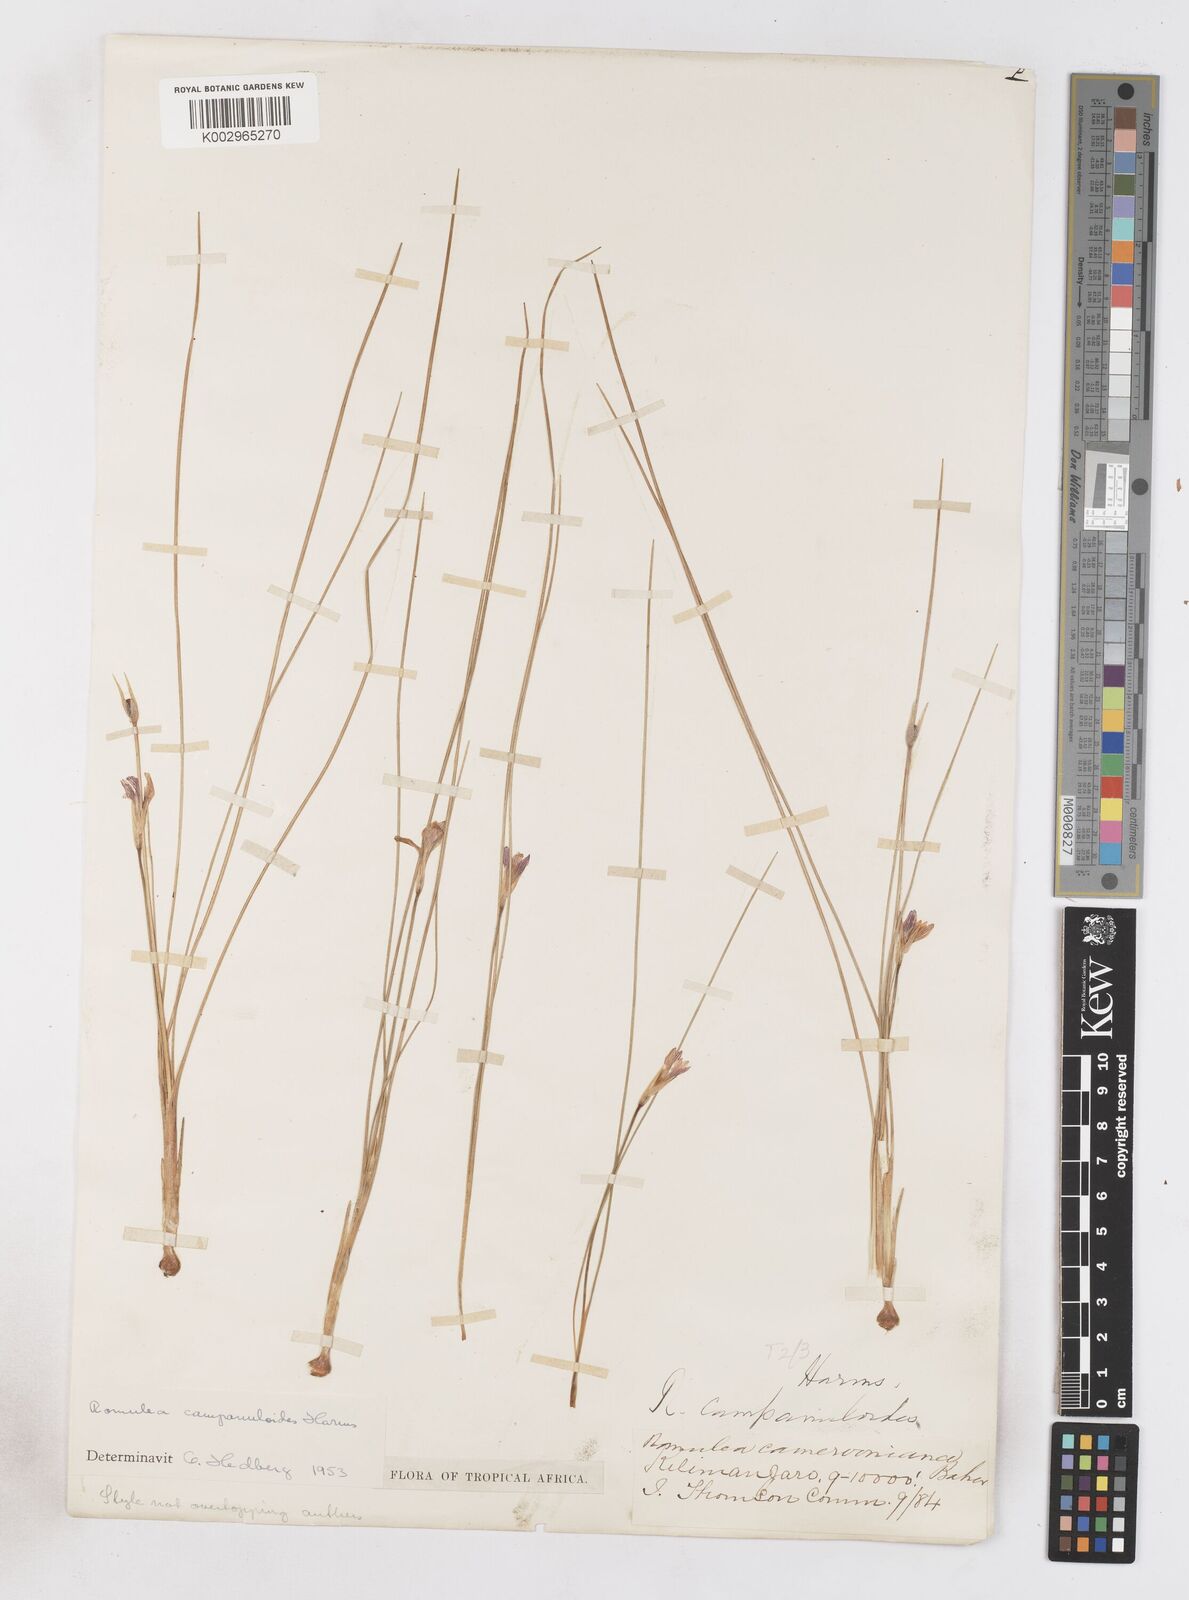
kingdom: Plantae
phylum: Tracheophyta
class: Liliopsida
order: Asparagales
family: Iridaceae
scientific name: Iridaceae
